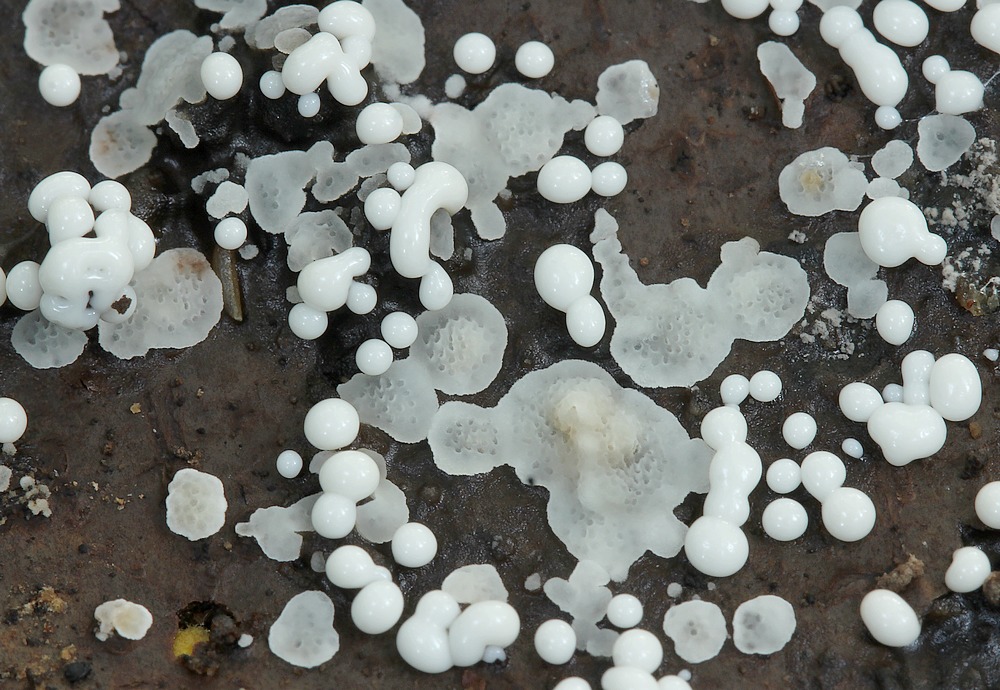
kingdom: Fungi
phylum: Basidiomycota
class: Agaricomycetes
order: Polyporales
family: Meripilaceae
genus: Rigidoporus
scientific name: Rigidoporus sanguinolentus
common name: blod-skorpeporesvamp
